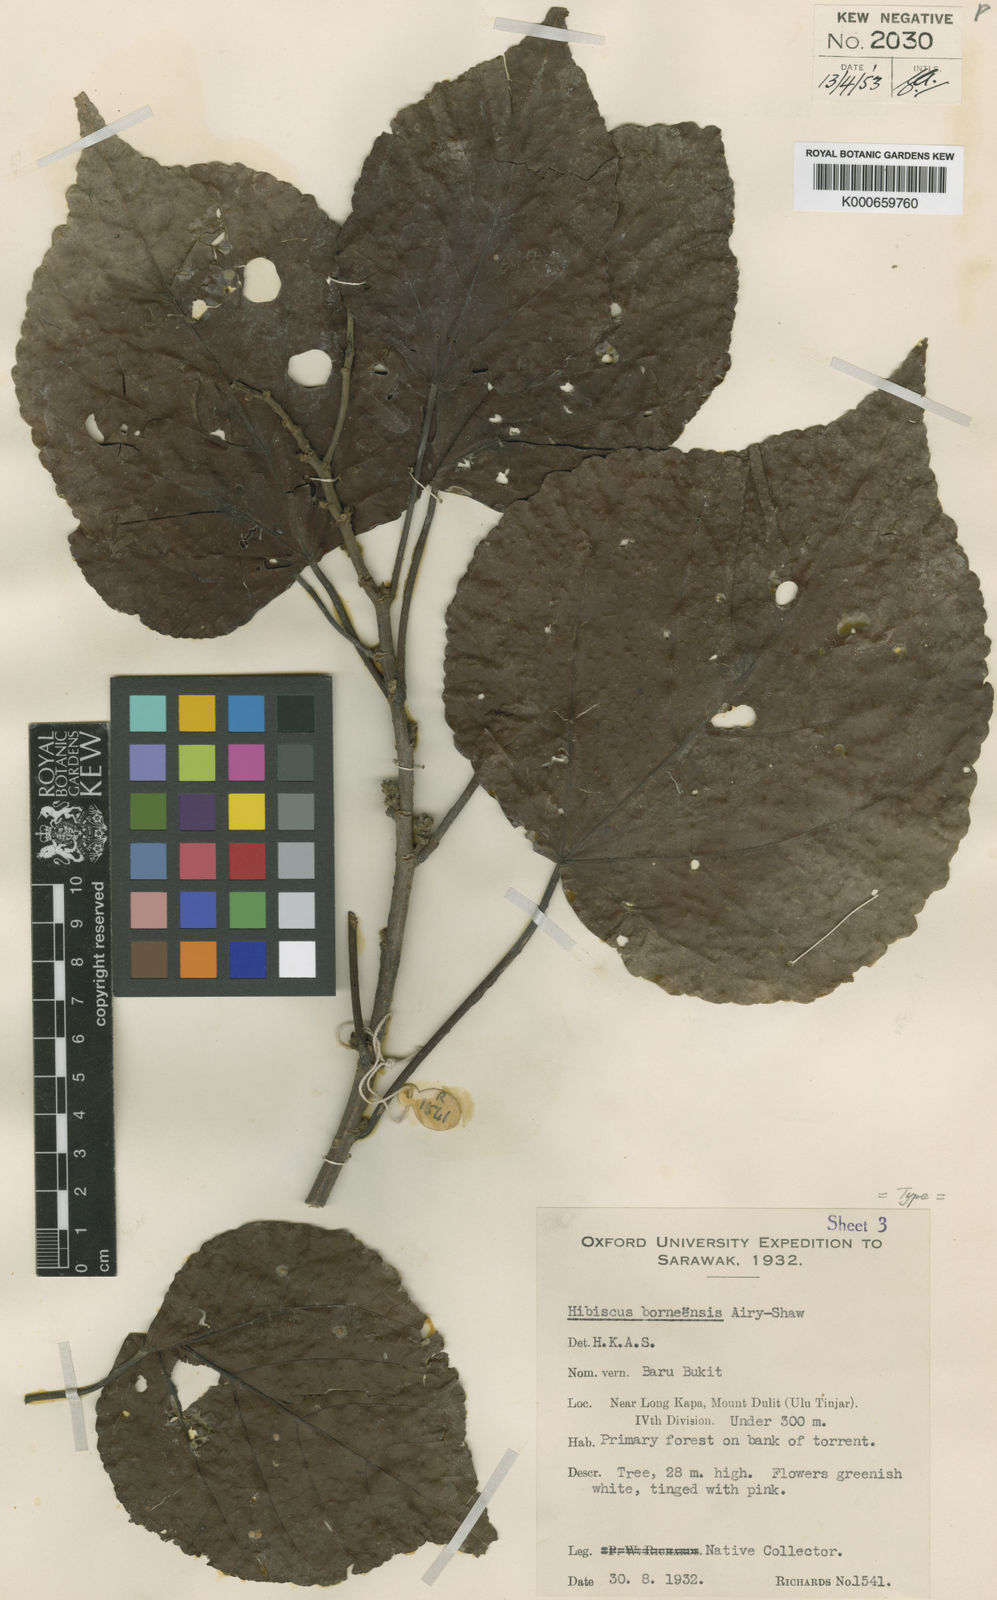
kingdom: Plantae
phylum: Tracheophyta
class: Magnoliopsida
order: Malvales
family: Malvaceae
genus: Talipariti
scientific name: Talipariti borneense
